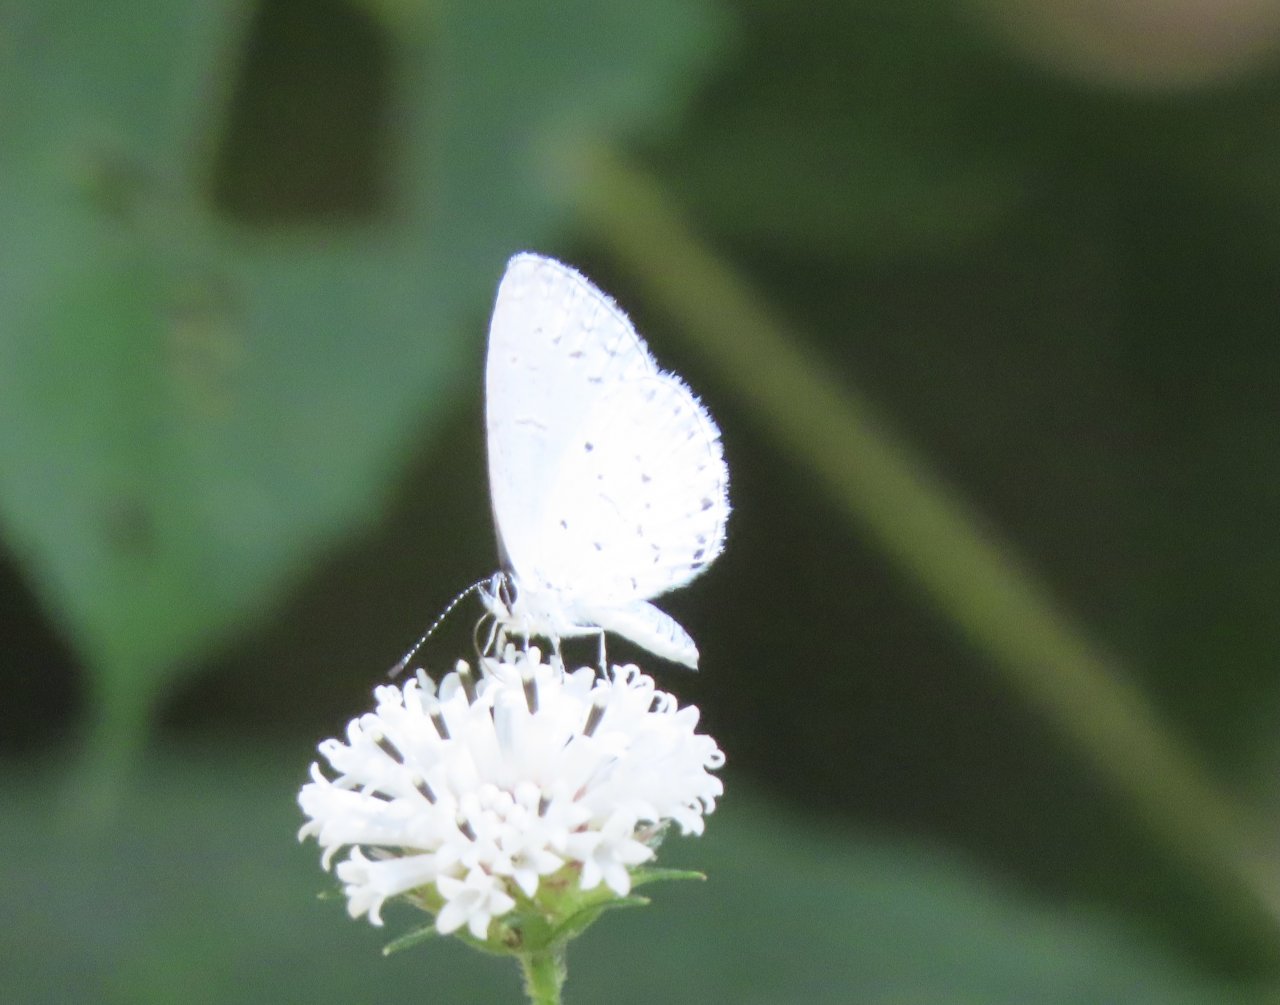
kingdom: Animalia
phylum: Arthropoda
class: Insecta
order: Lepidoptera
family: Lycaenidae
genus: Cyaniris
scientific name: Cyaniris neglecta
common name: Summer Azure
